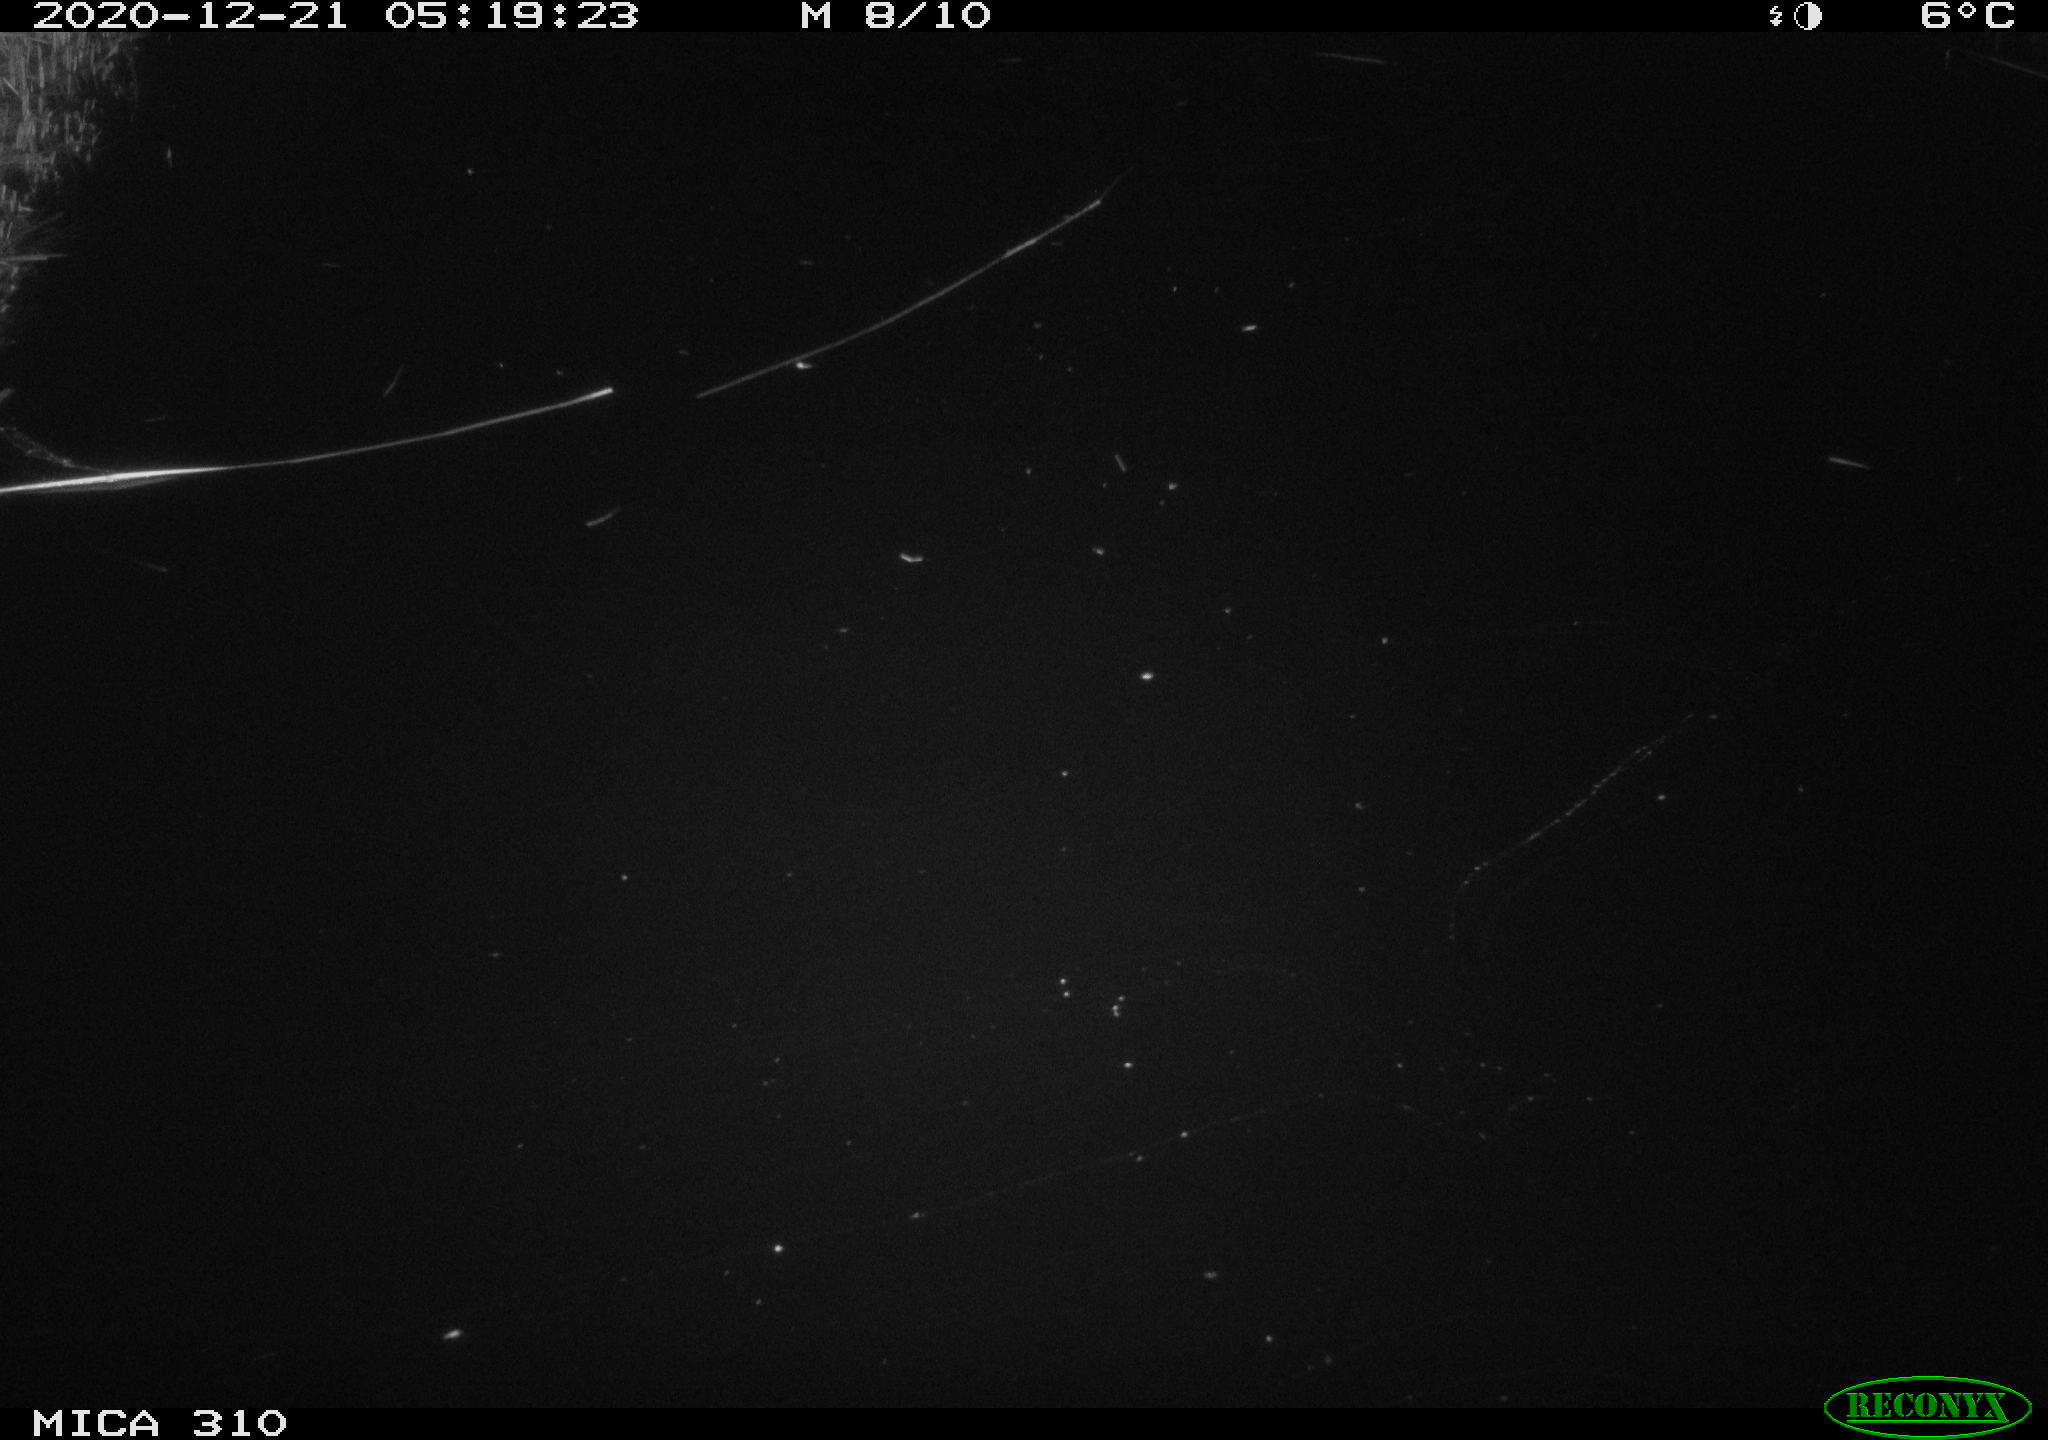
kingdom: Animalia
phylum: Chordata
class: Aves
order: Anseriformes
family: Anatidae
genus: Anas
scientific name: Anas platyrhynchos
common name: Mallard
